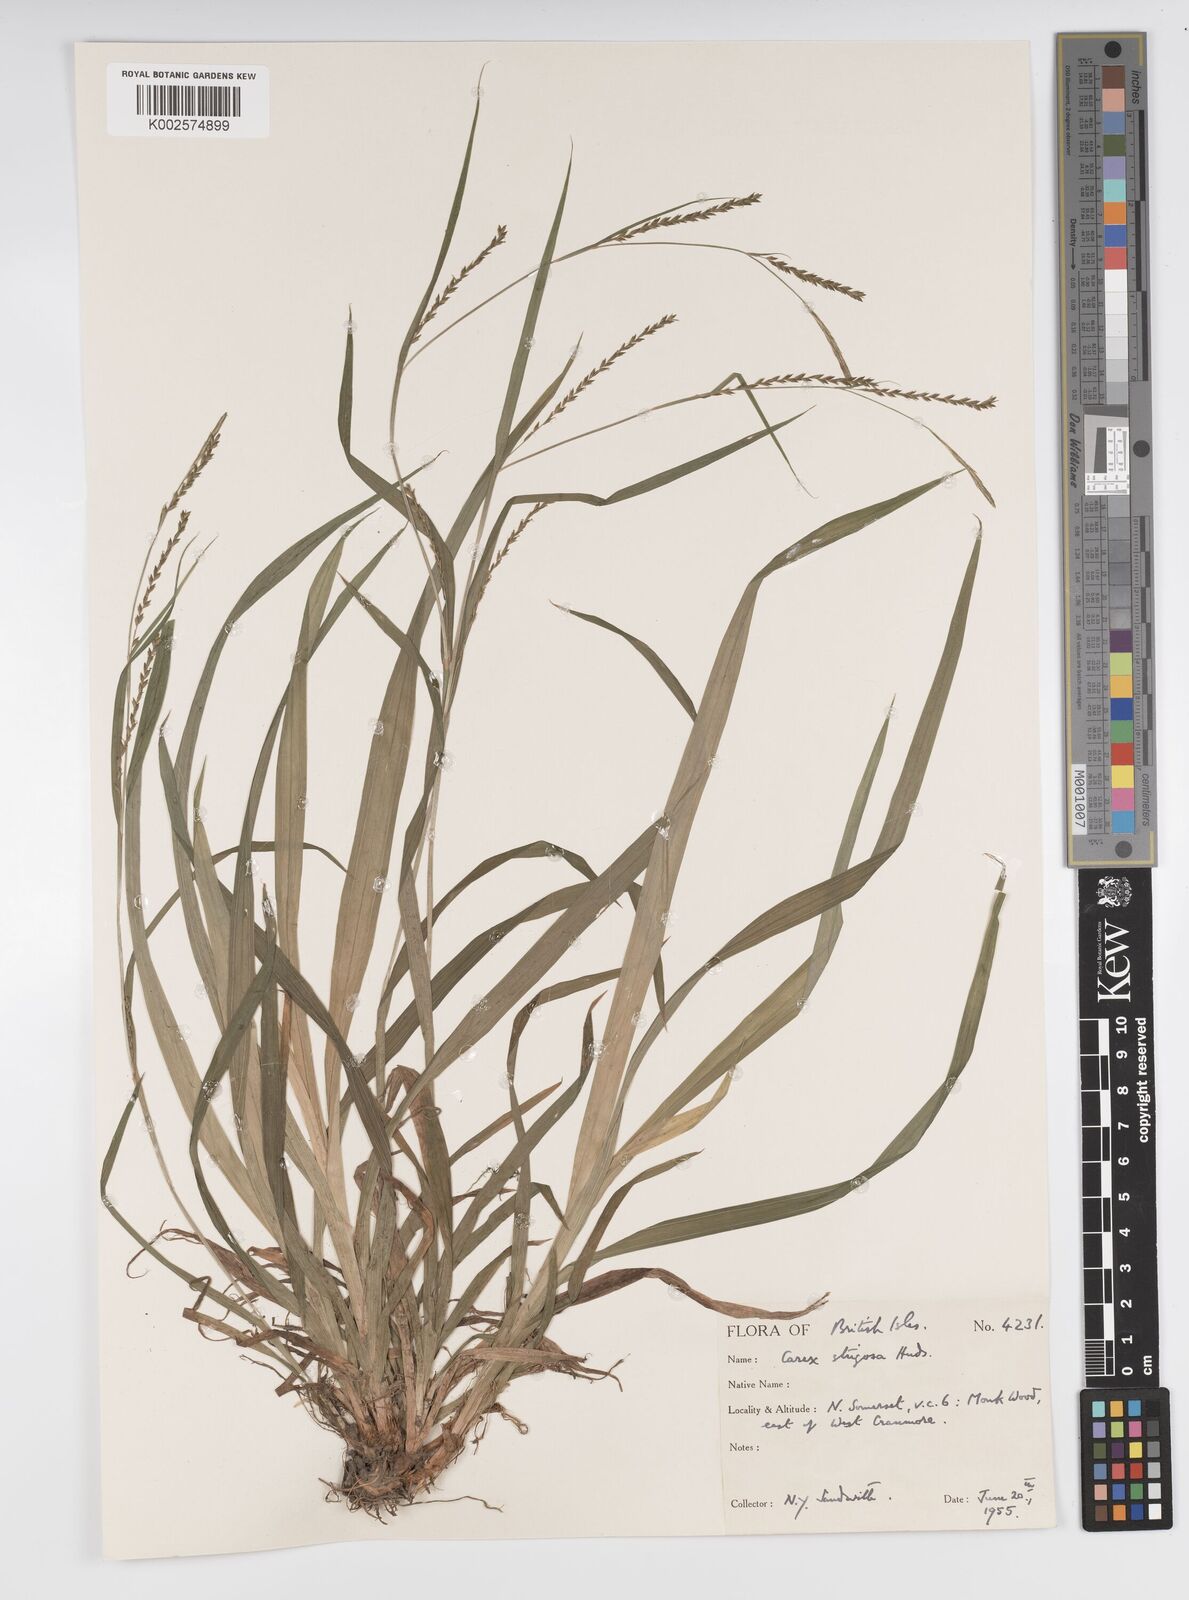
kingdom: Plantae
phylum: Tracheophyta
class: Liliopsida
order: Poales
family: Cyperaceae
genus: Carex
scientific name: Carex strigosa
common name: Thin-spiked wood-sedge
